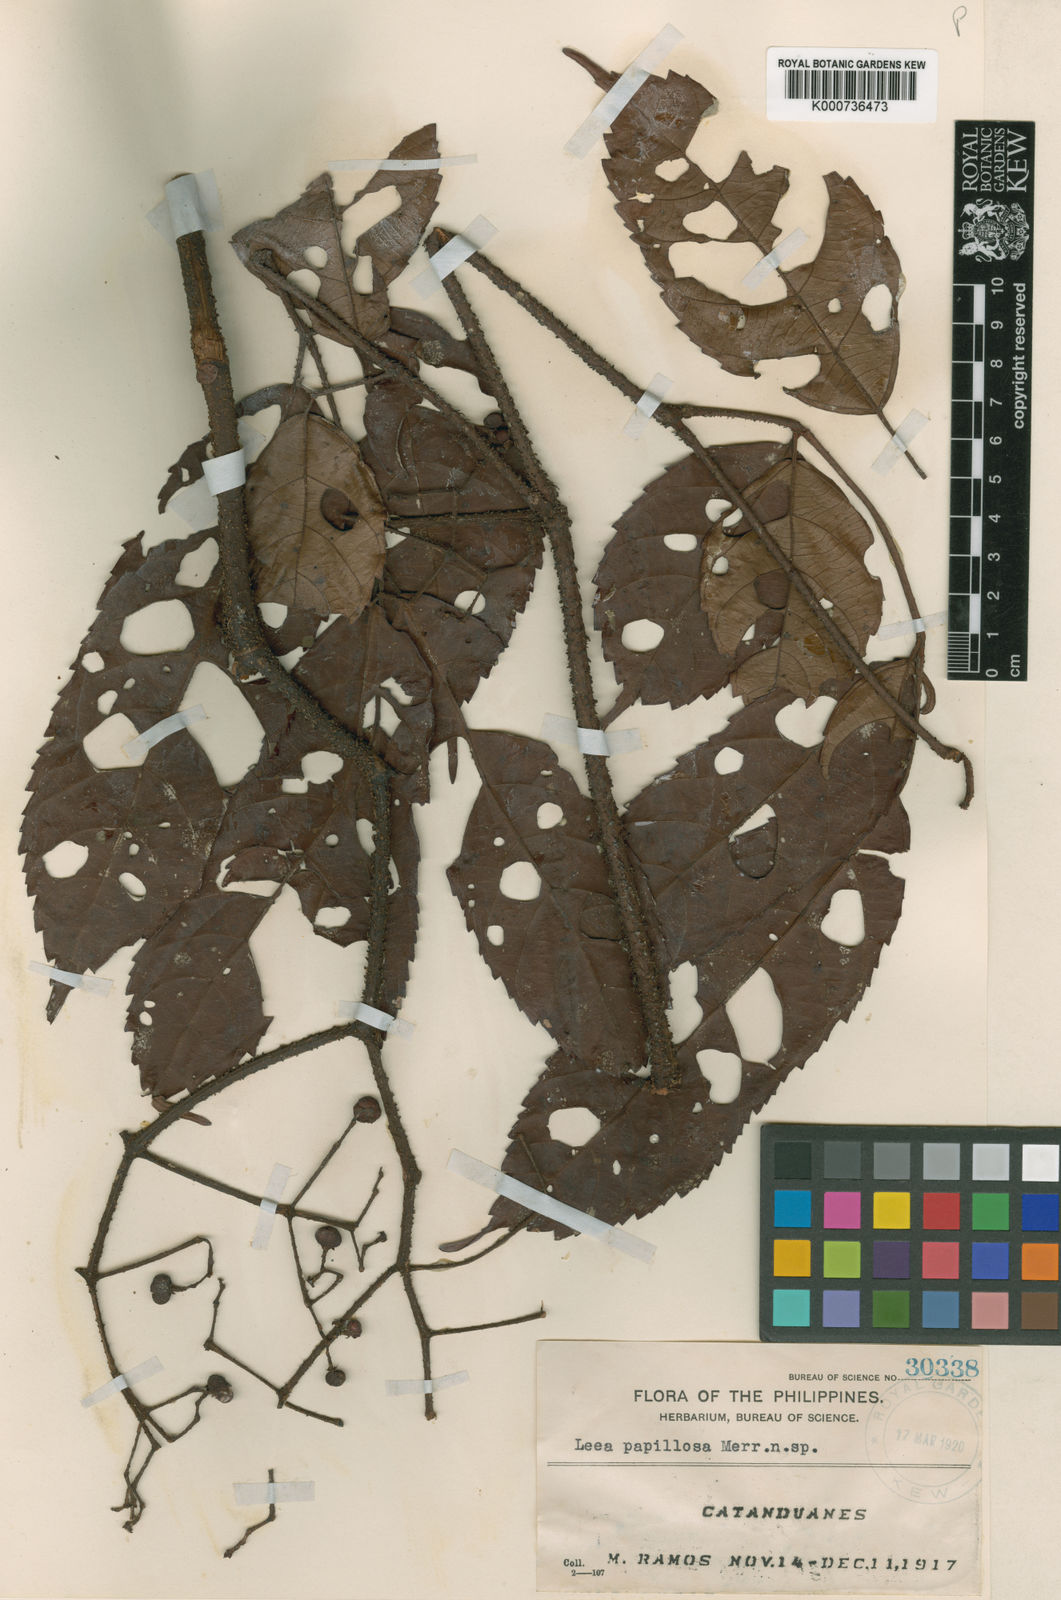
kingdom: Plantae
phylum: Tracheophyta
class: Magnoliopsida
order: Vitales
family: Vitaceae
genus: Leea
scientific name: Leea guineensis
